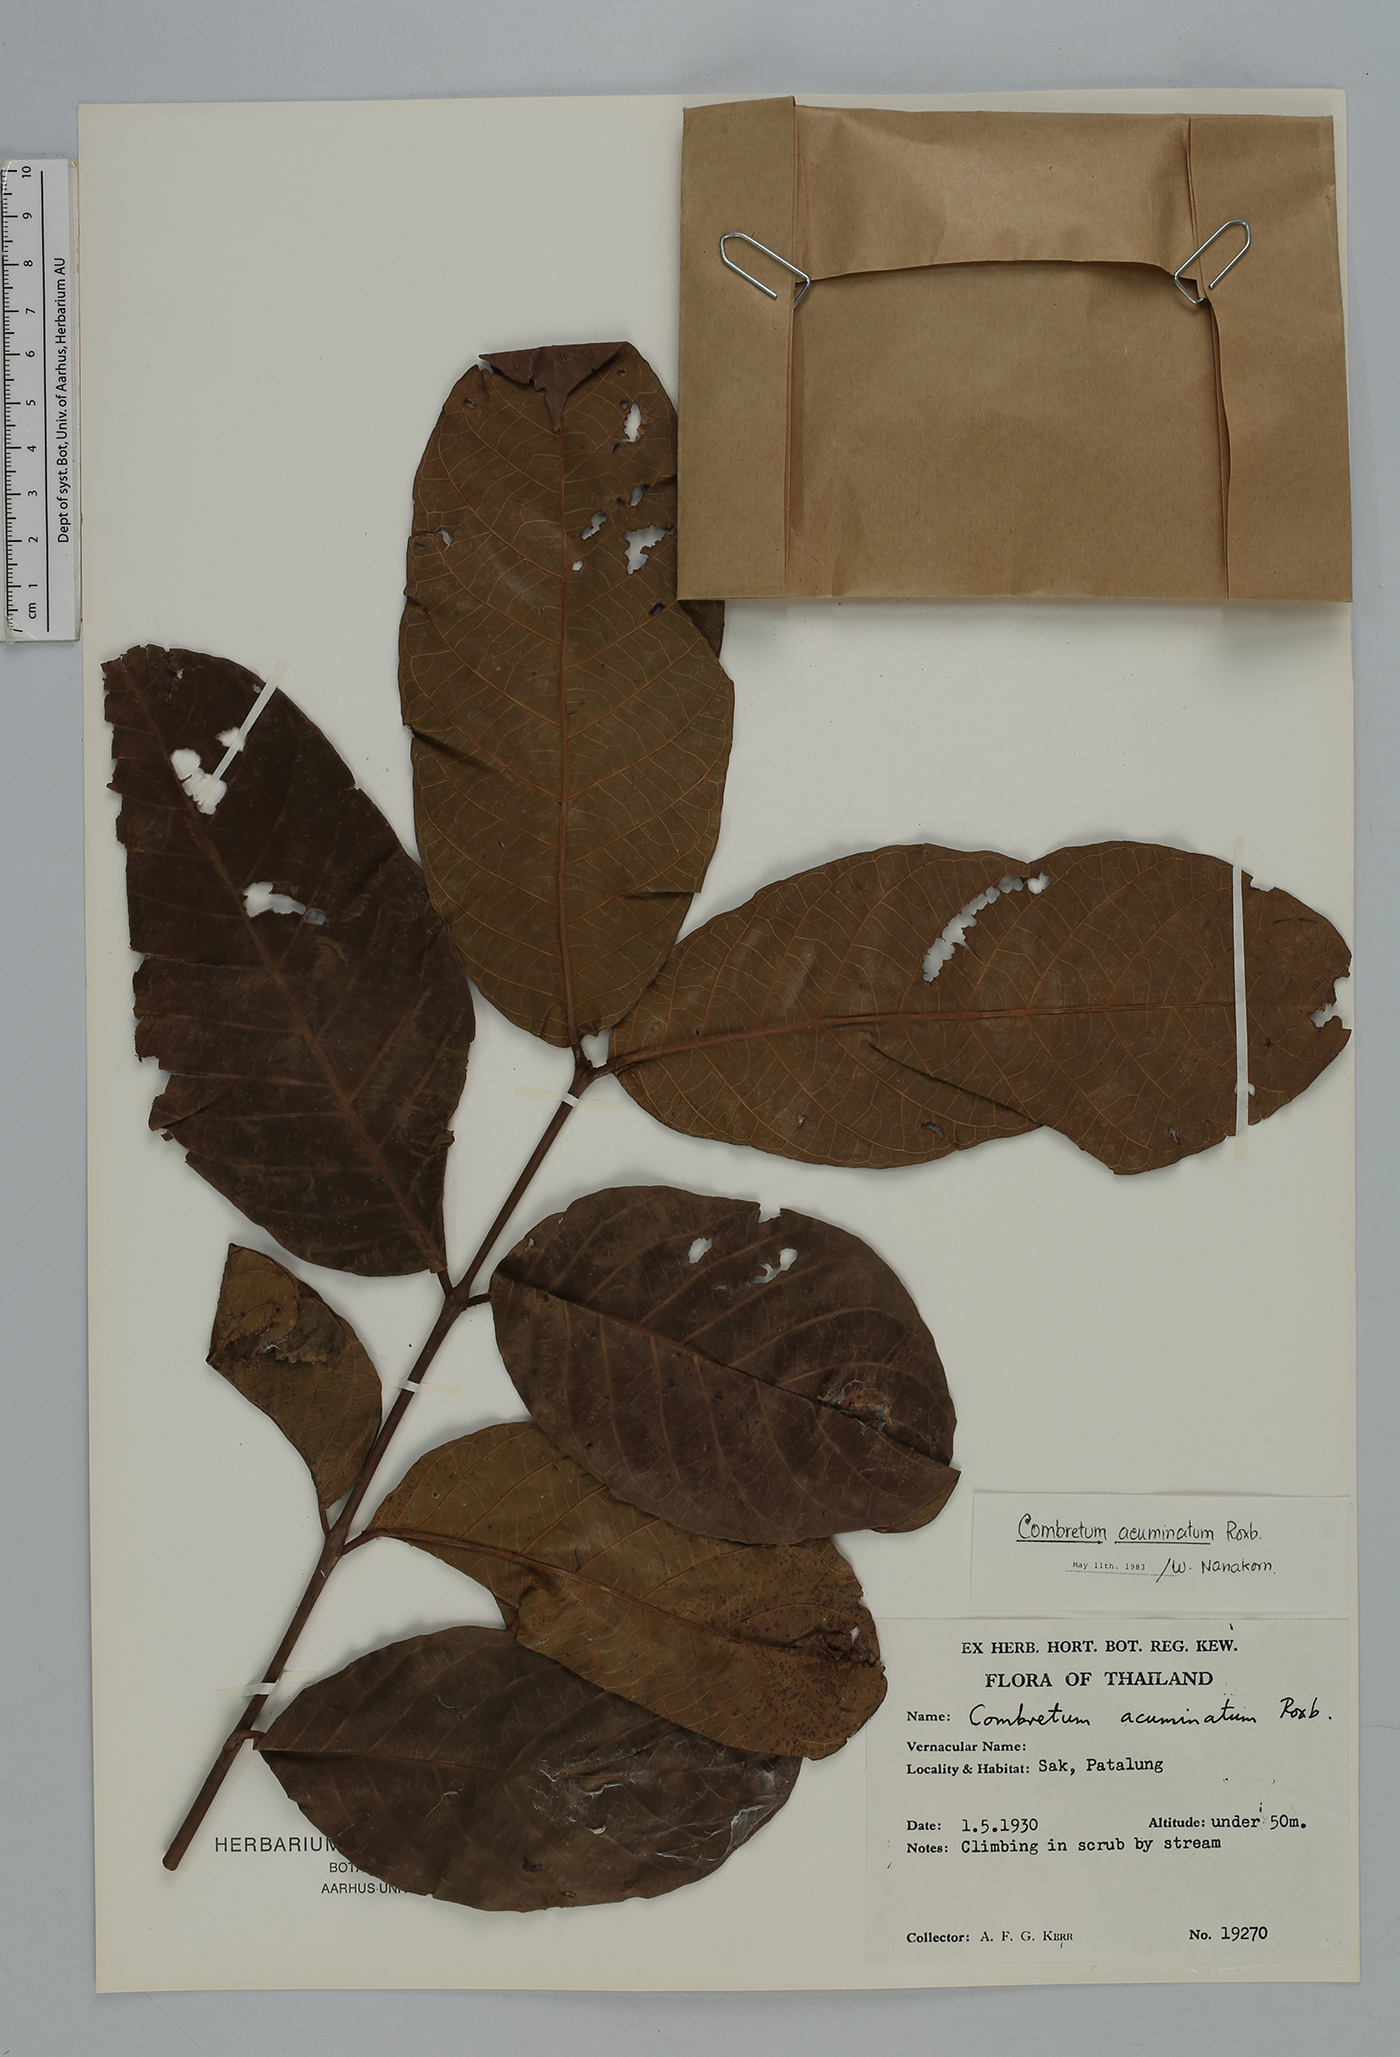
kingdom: Plantae
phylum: Tracheophyta
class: Magnoliopsida
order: Myrtales
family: Combretaceae
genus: Combretum
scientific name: Combretum acuminatum
